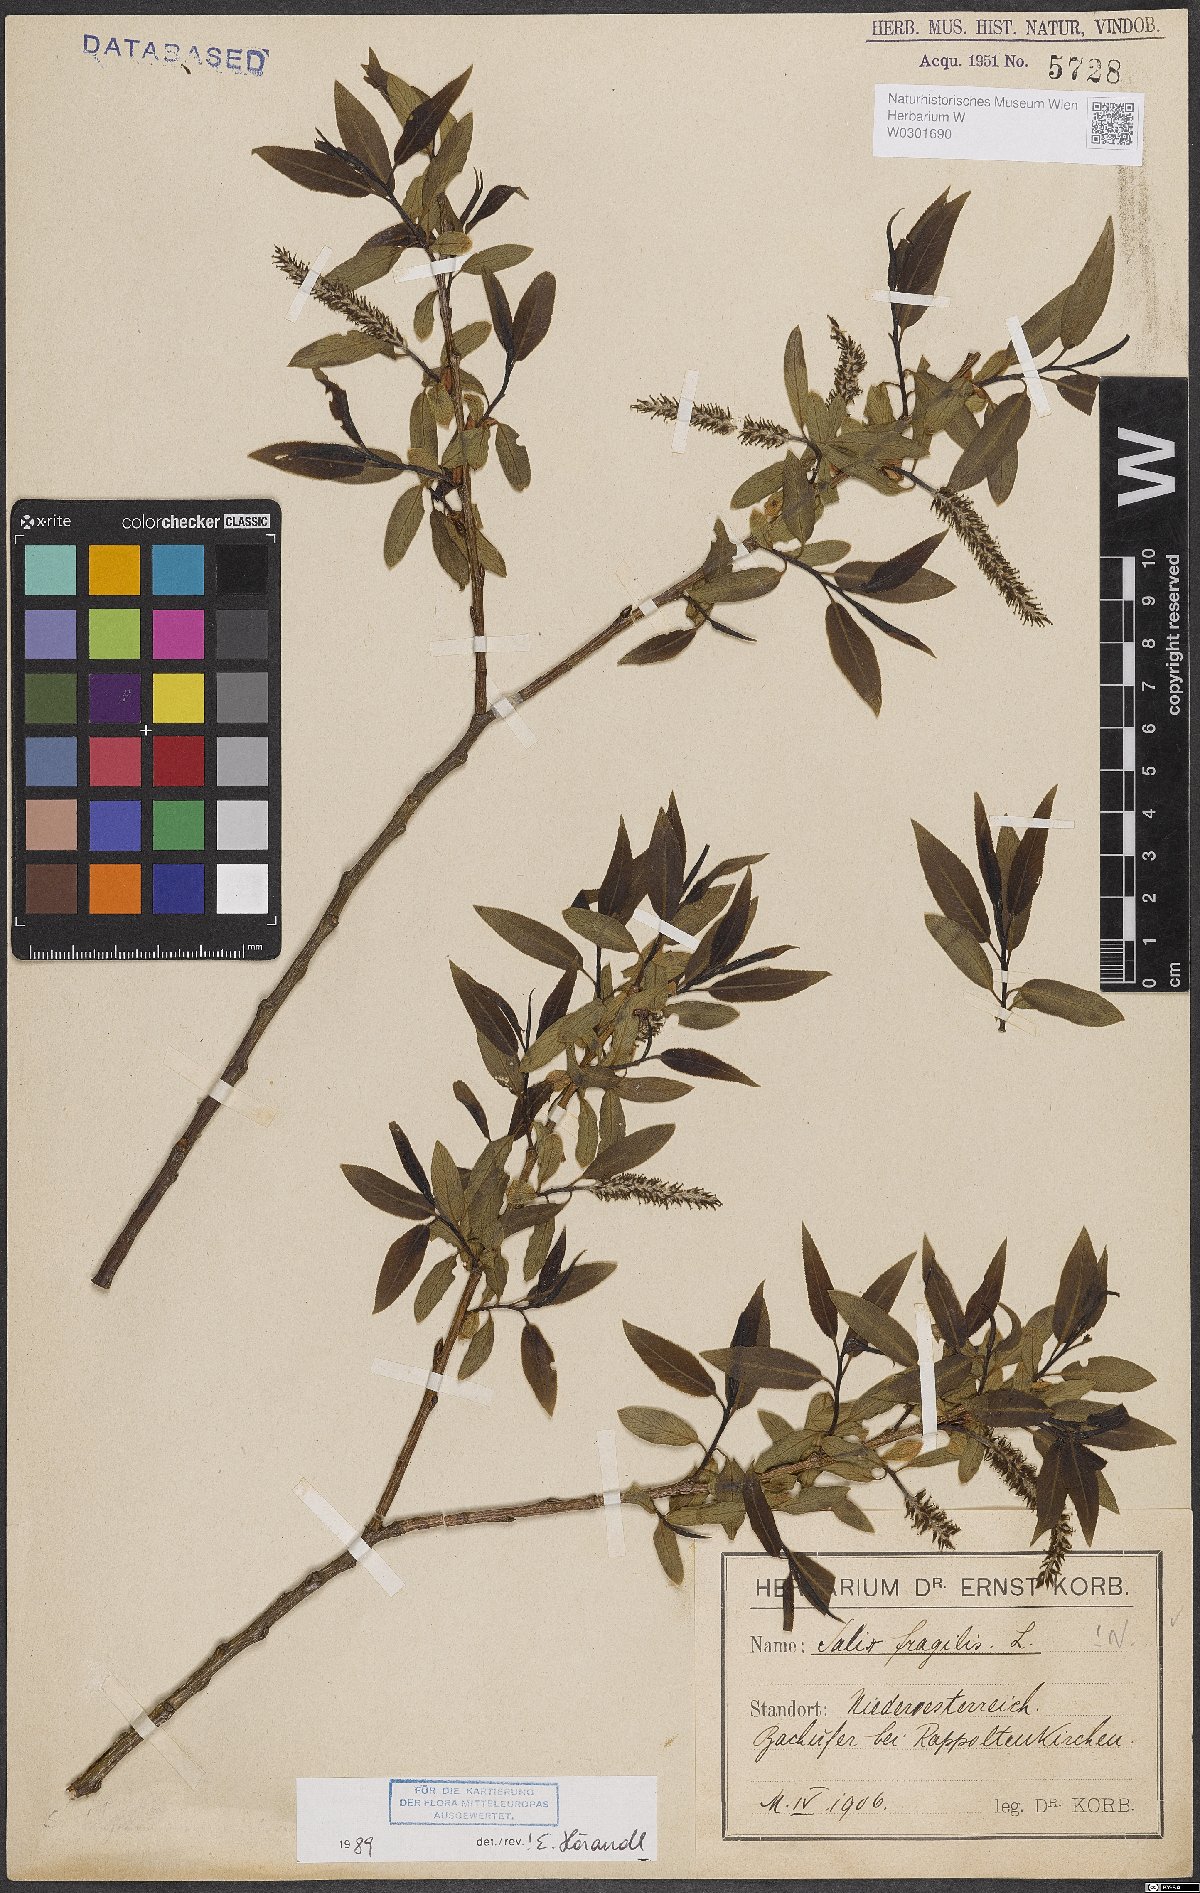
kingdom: Plantae
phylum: Tracheophyta
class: Magnoliopsida
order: Malpighiales
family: Salicaceae
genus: Salix
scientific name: Salix fragilis
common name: Crack willow
